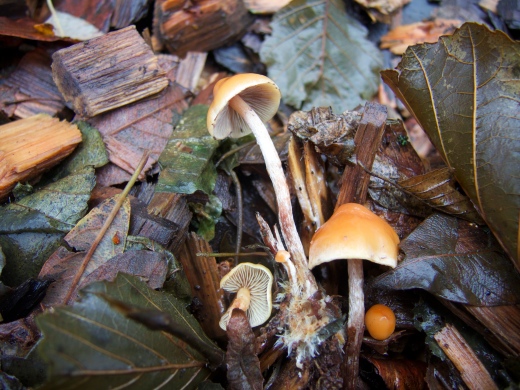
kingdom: Fungi
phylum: Basidiomycota
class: Agaricomycetes
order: Agaricales
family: Strophariaceae
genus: Hypholoma
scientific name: Hypholoma marginatum
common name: enlig svovlhat
